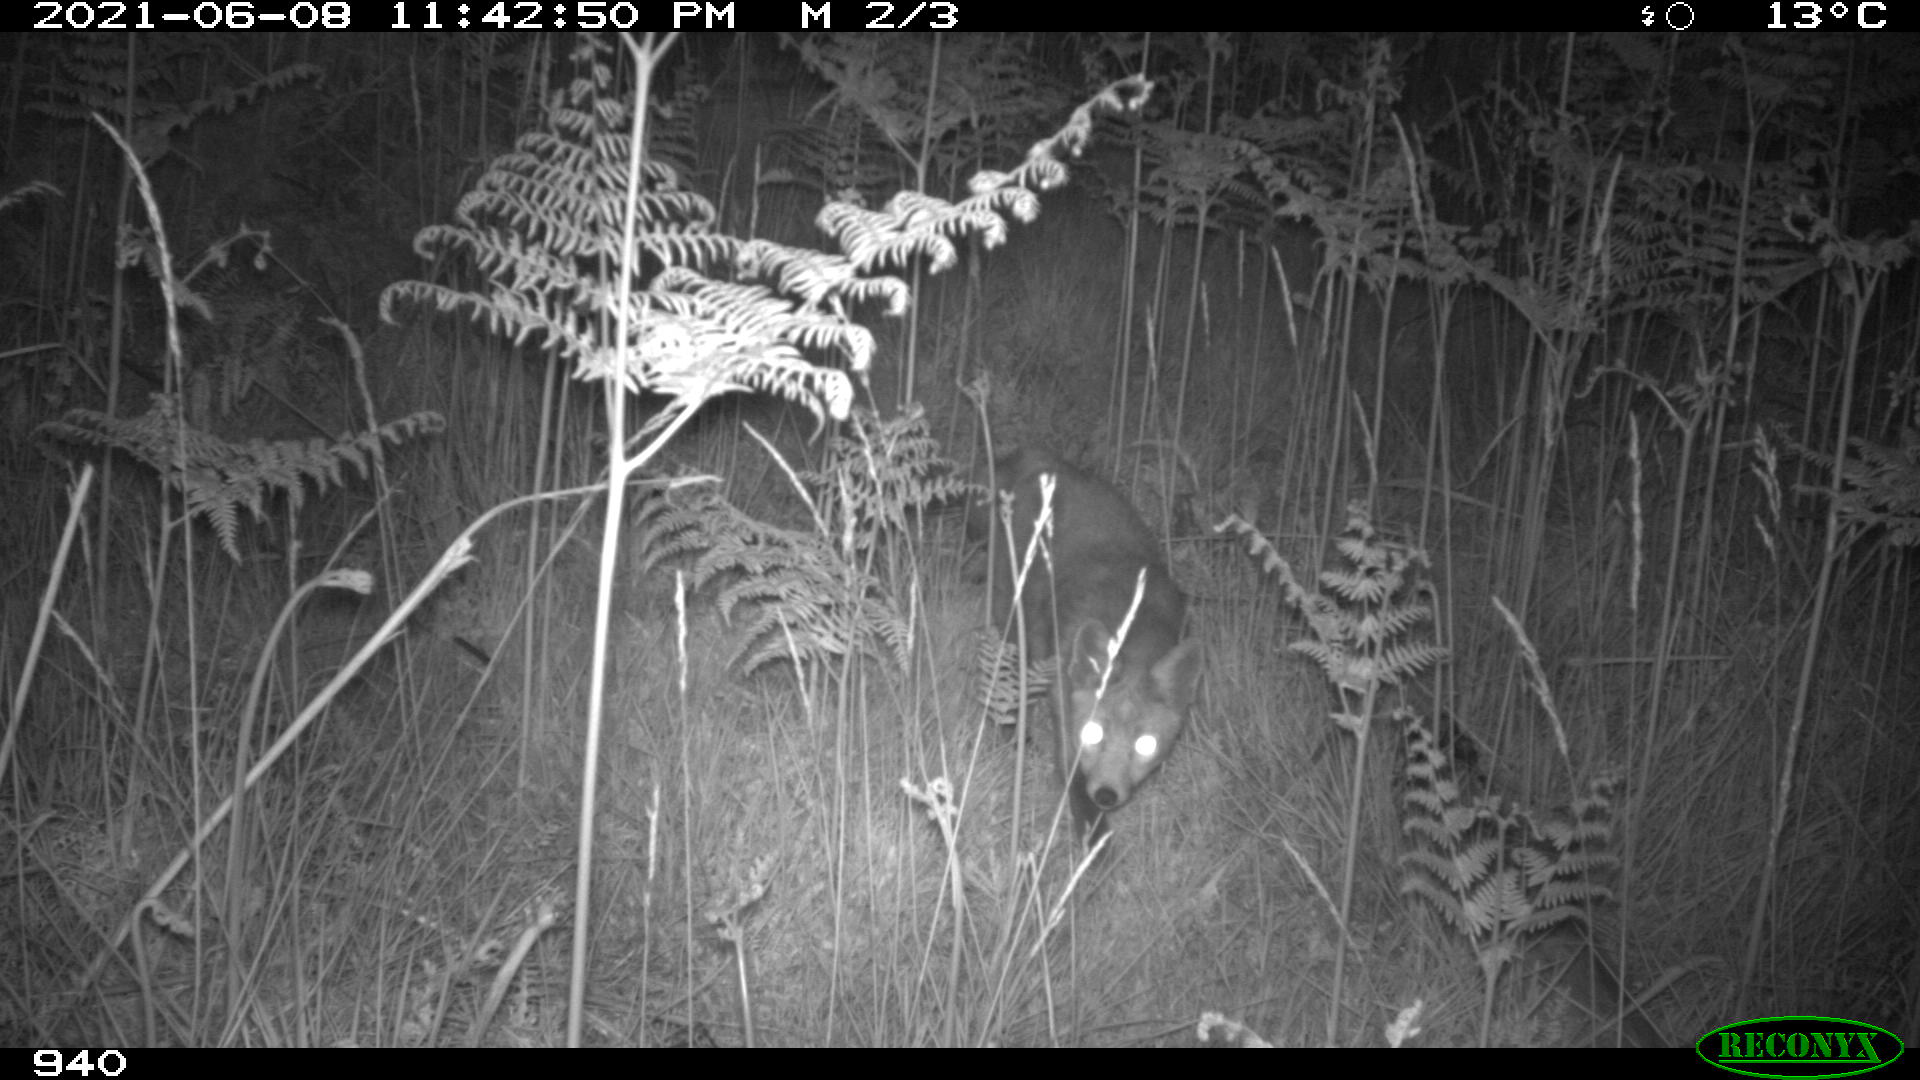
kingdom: Animalia
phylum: Chordata
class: Mammalia
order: Carnivora
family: Canidae
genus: Vulpes
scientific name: Vulpes vulpes
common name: Red fox
